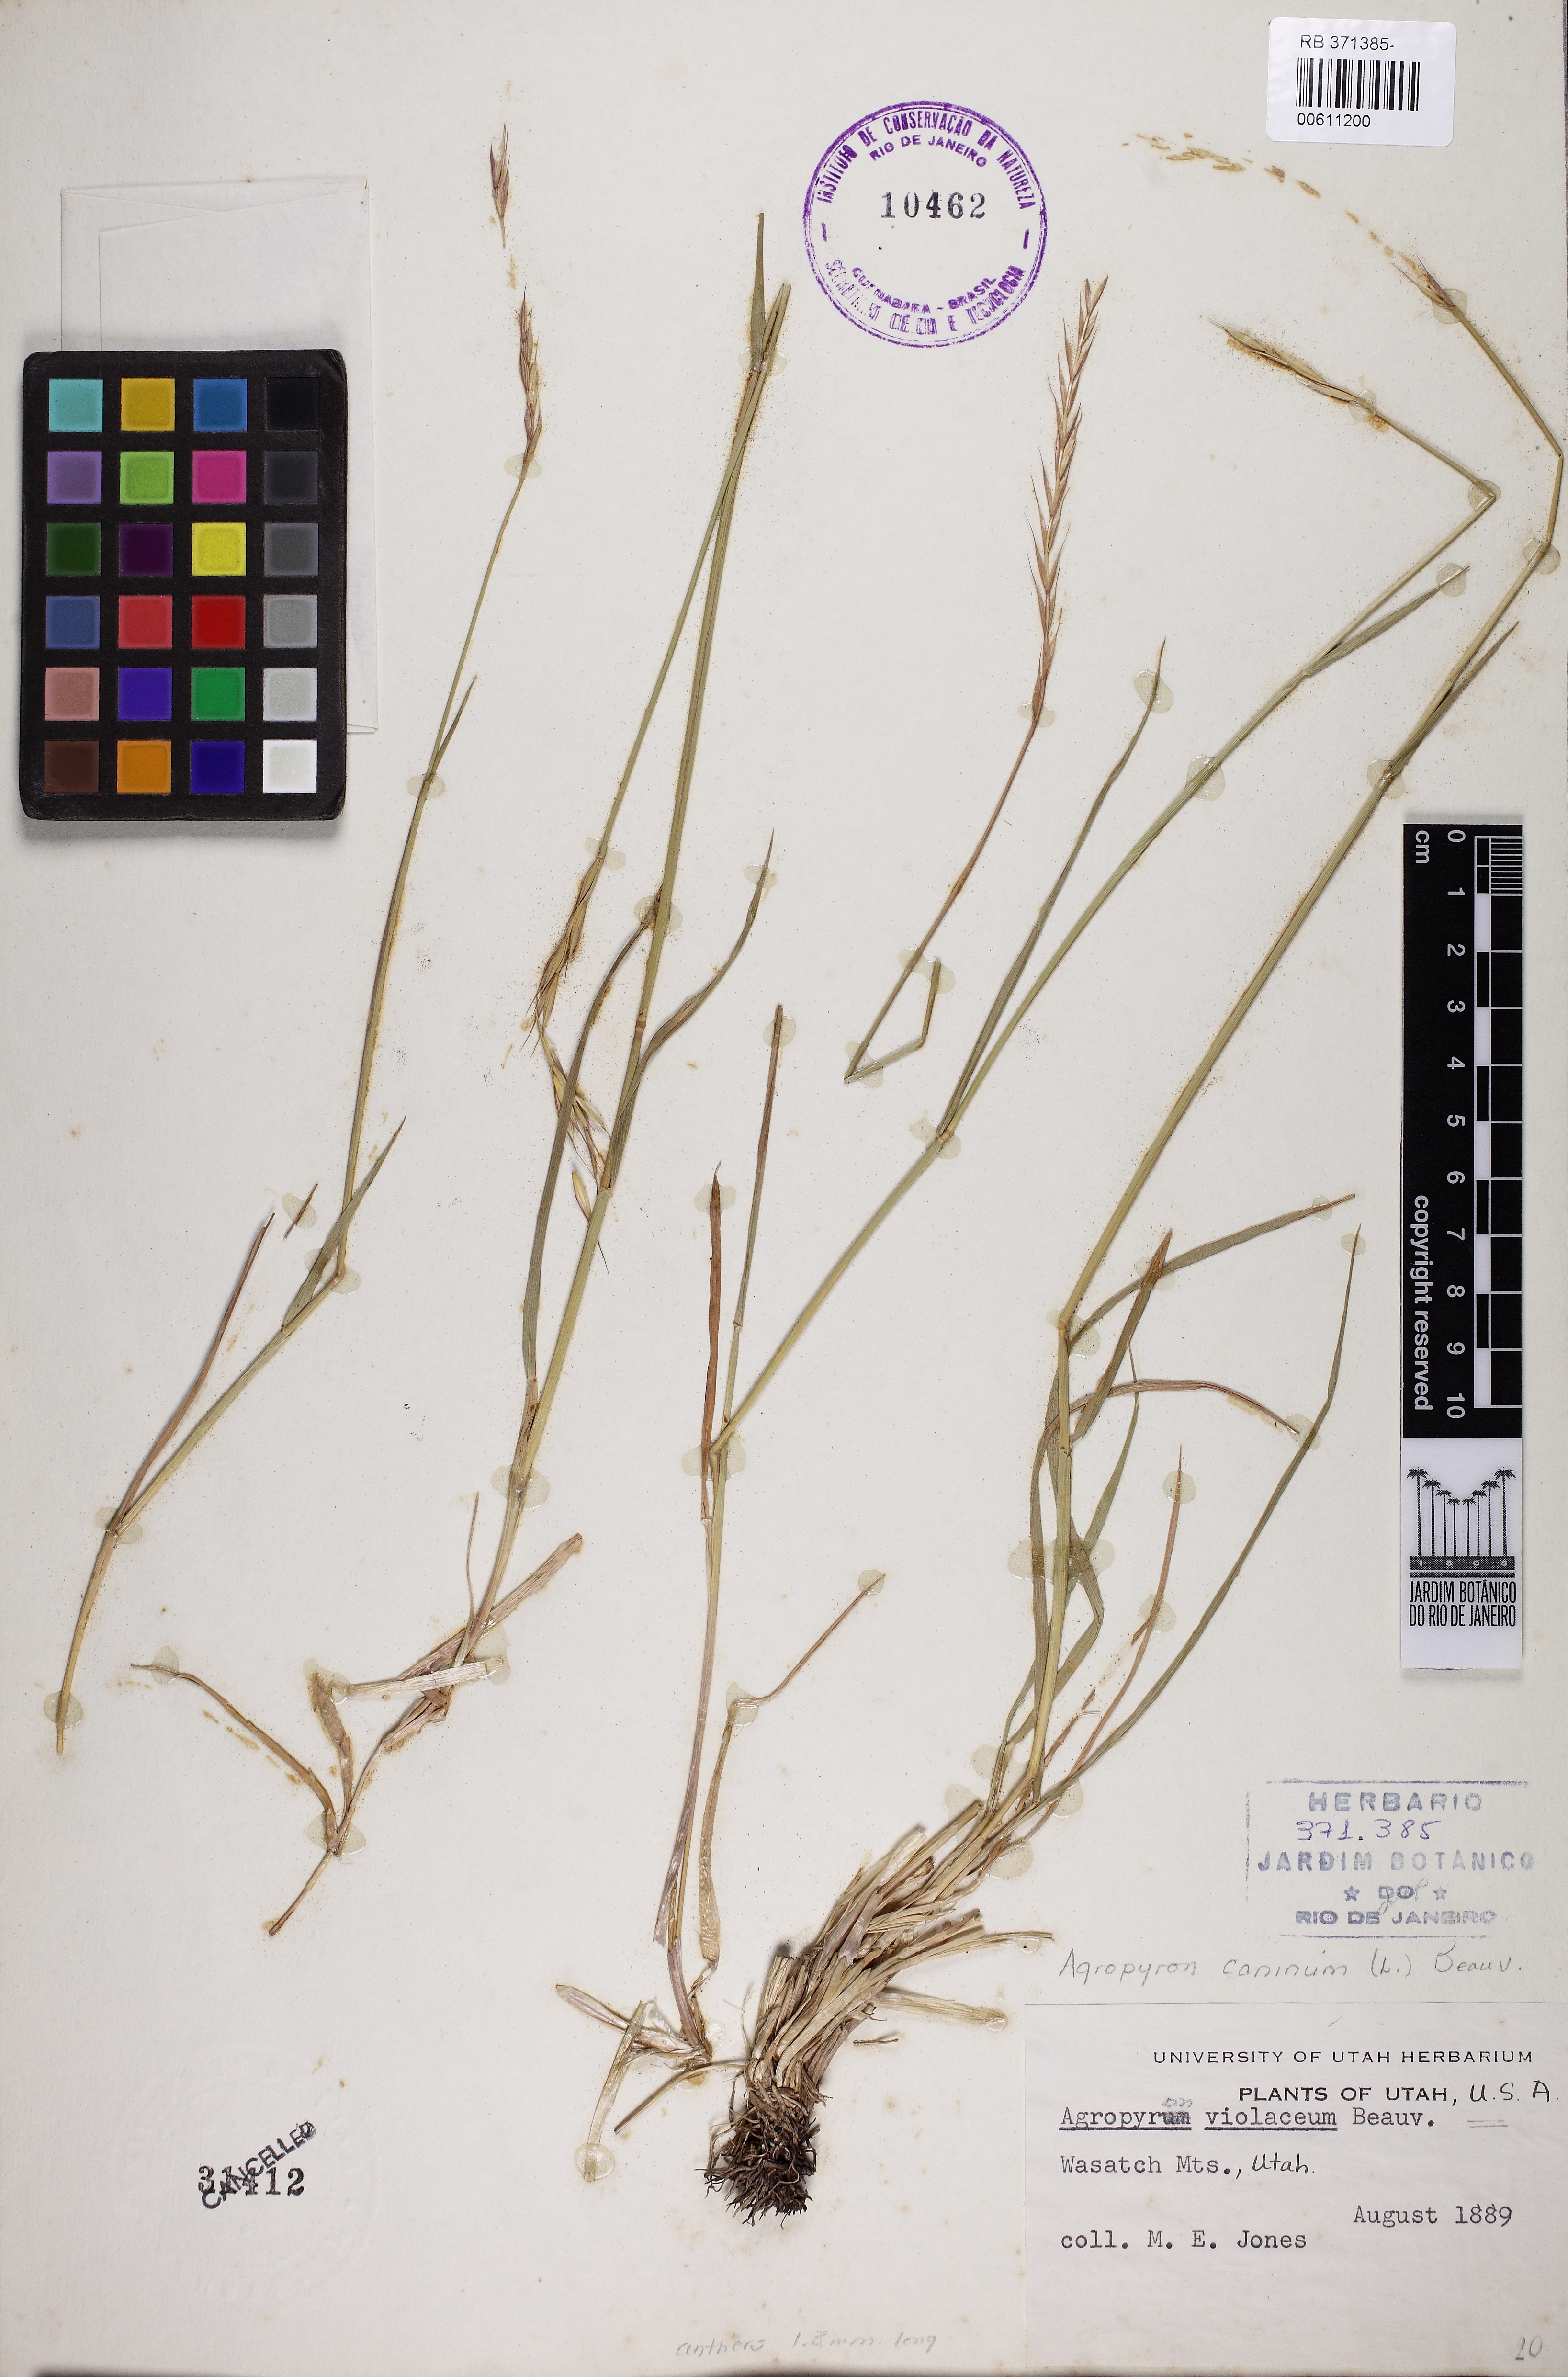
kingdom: Plantae
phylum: Tracheophyta
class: Liliopsida
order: Poales
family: Poaceae
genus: Elymus
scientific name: Elymus caninus
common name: Bearded couch
